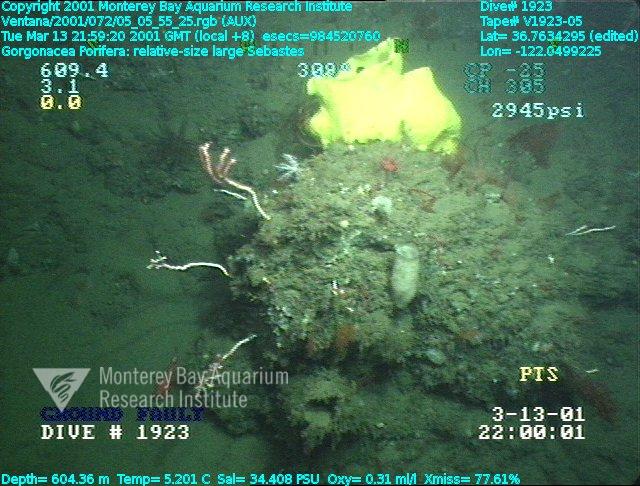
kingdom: Animalia
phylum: Porifera
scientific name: Porifera
